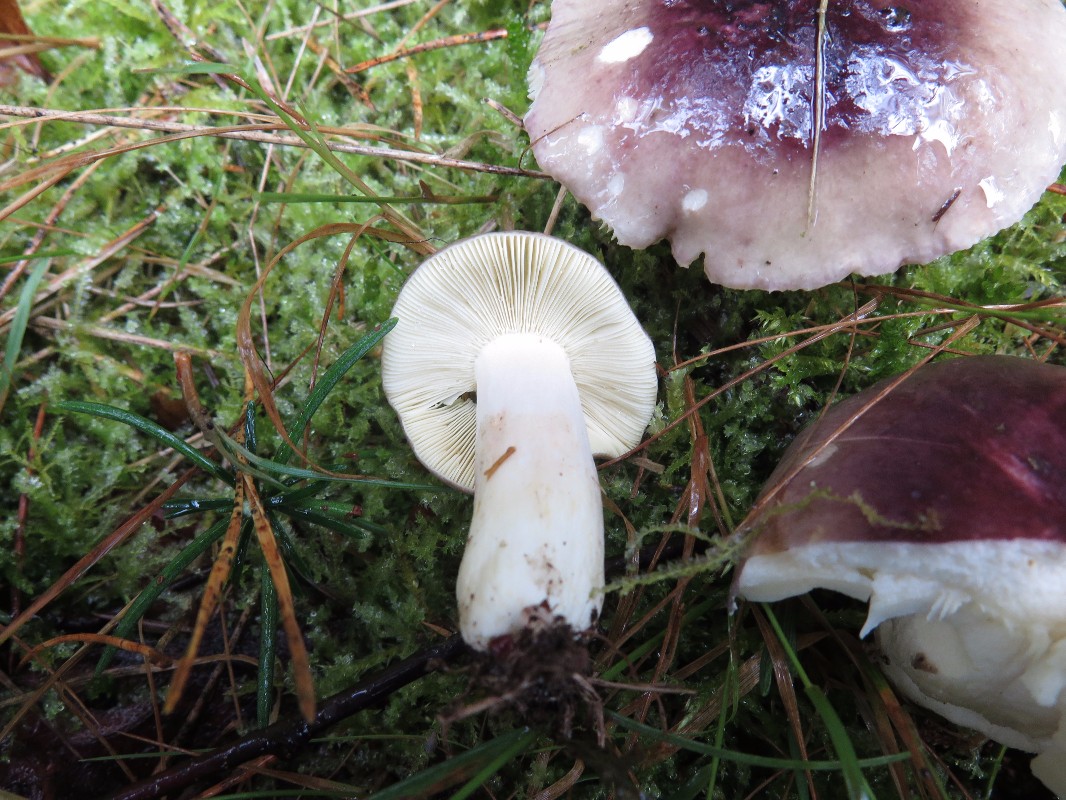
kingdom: Fungi
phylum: Basidiomycota
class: Agaricomycetes
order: Russulales
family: Russulaceae
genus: Russula
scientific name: Russula
